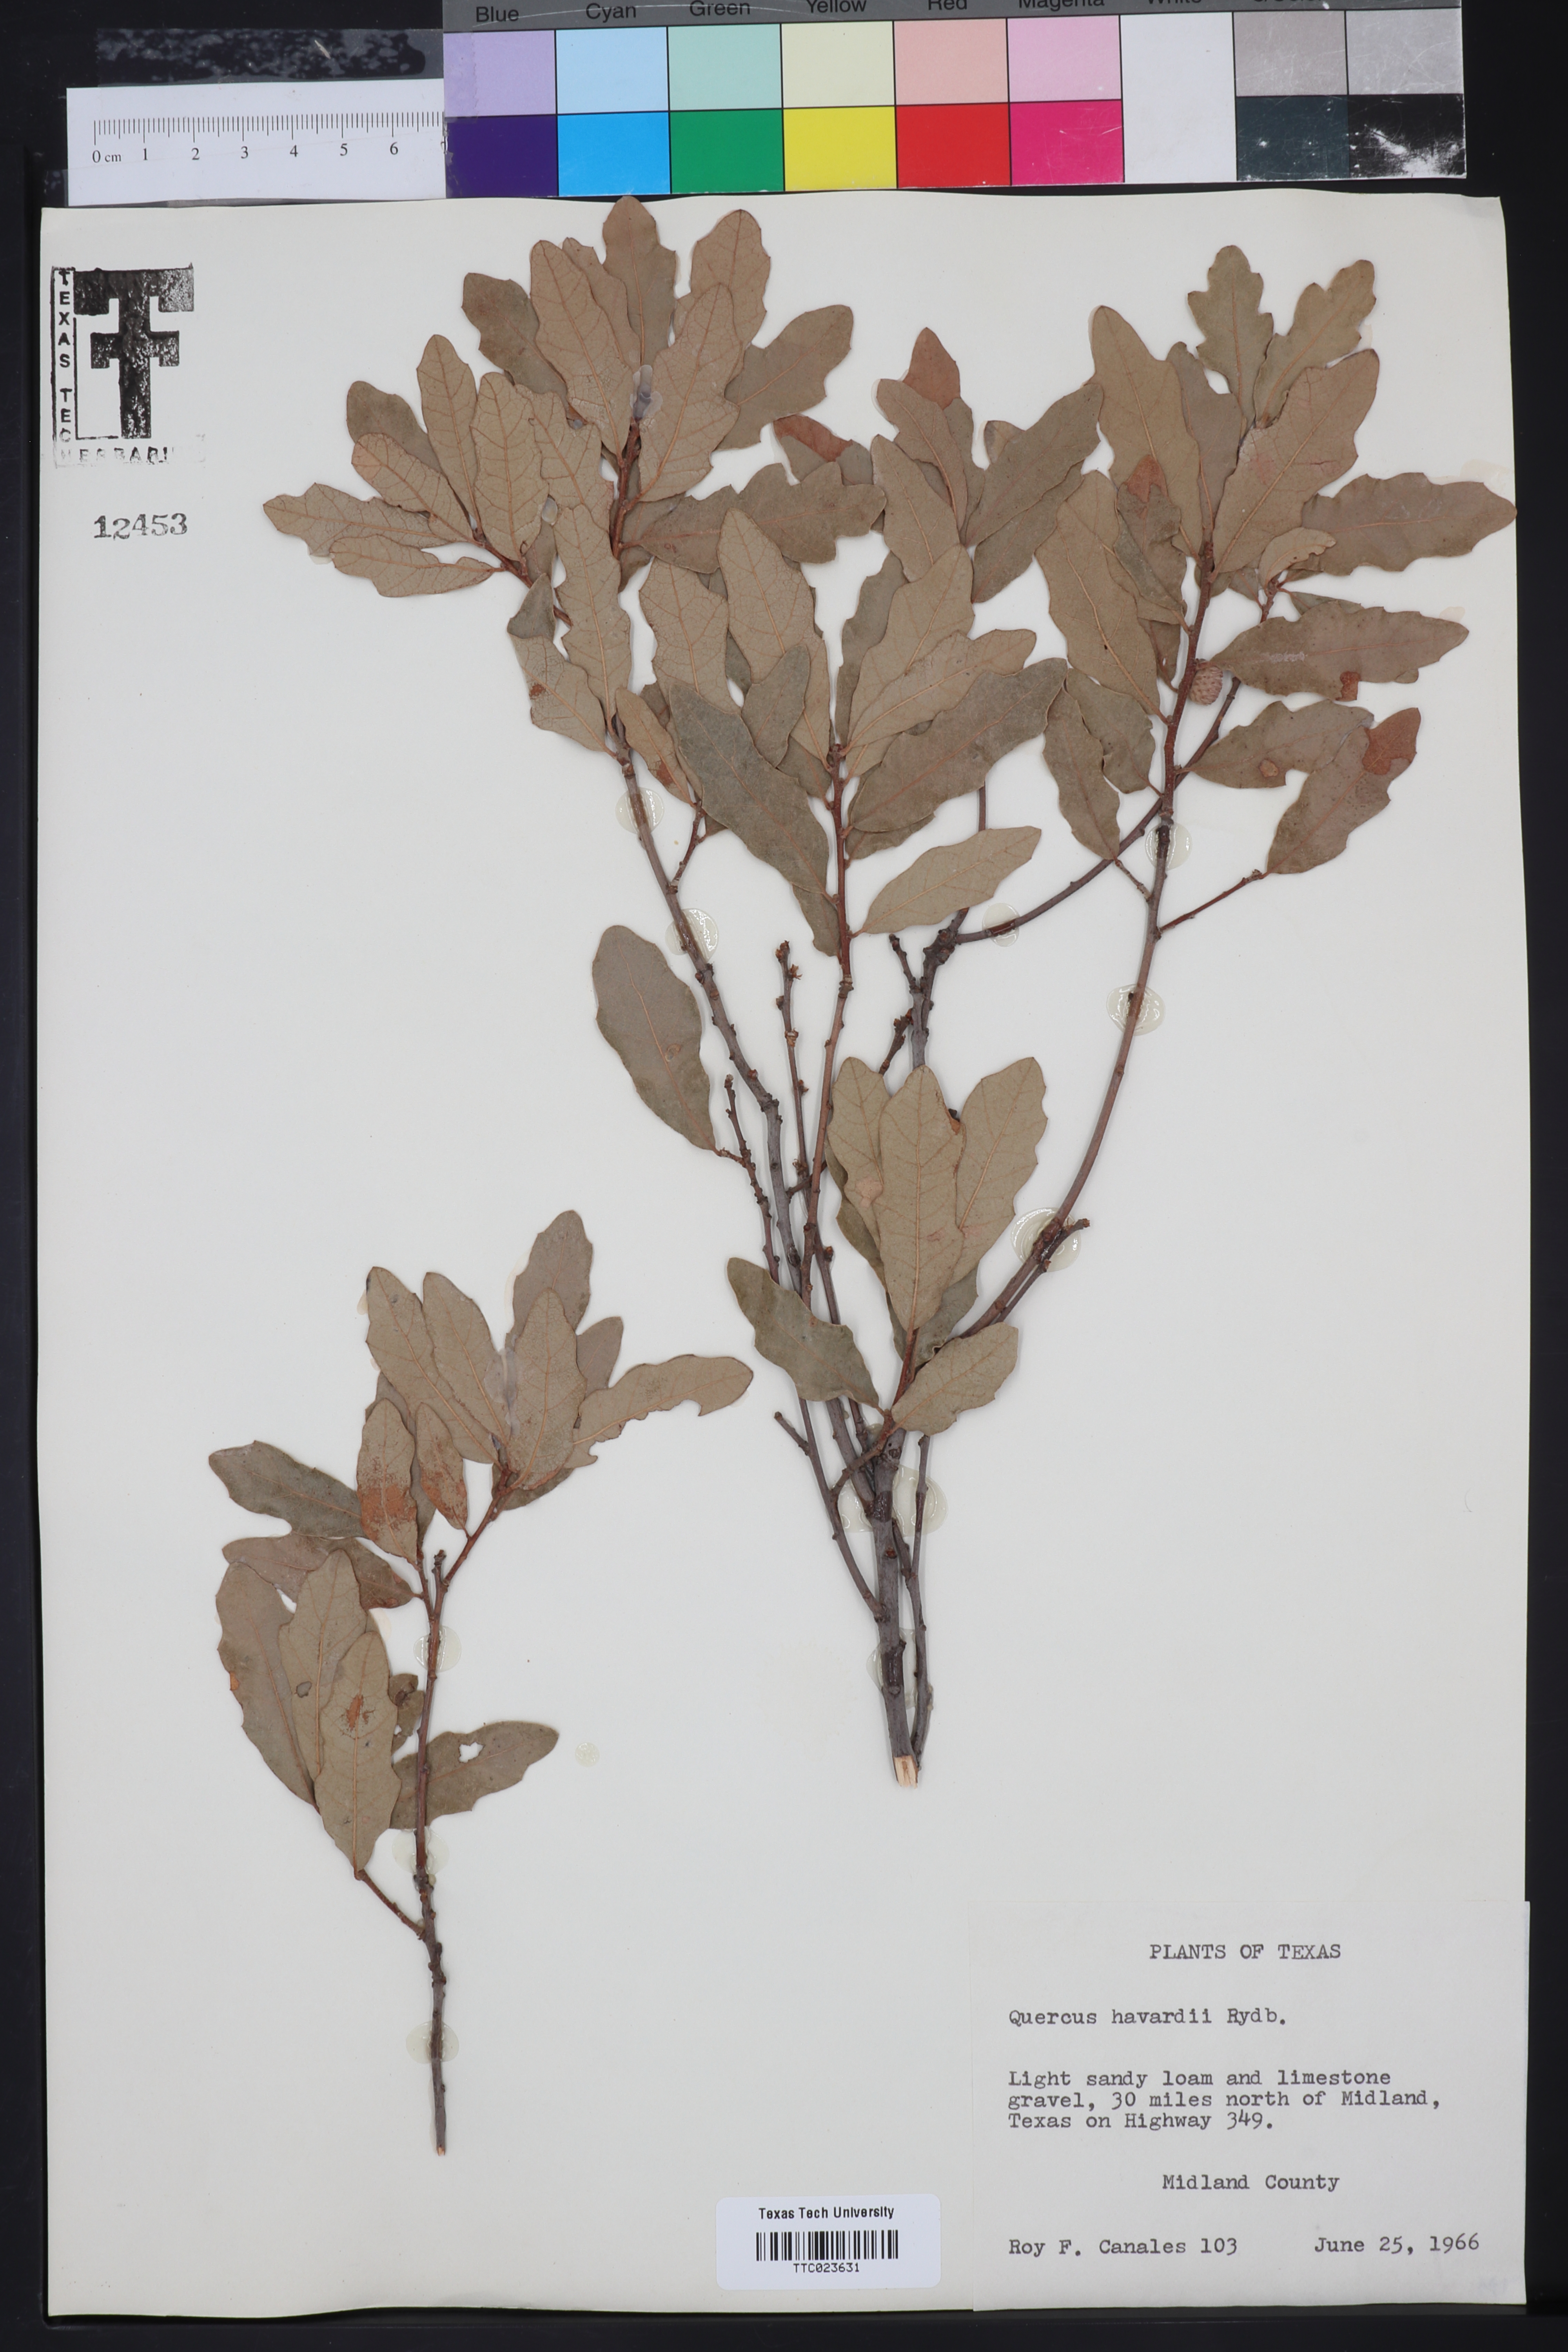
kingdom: Plantae
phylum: Tracheophyta
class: Magnoliopsida
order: Fagales
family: Fagaceae
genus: Quercus
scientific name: Quercus havardii
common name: Shinnery oak
